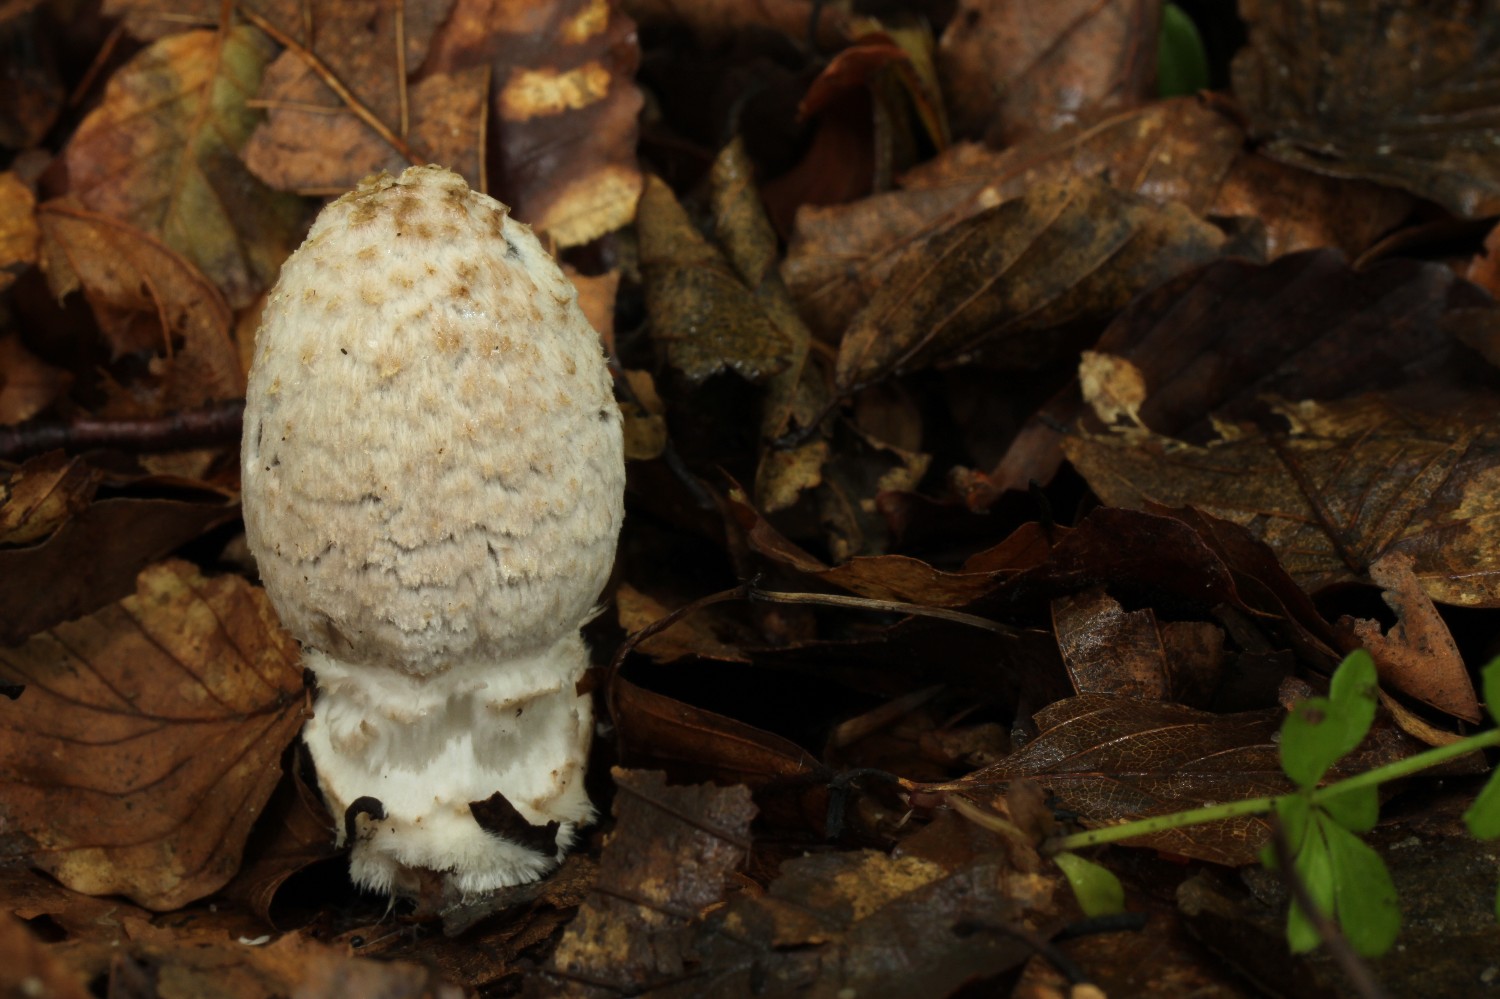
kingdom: Fungi
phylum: Basidiomycota
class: Agaricomycetes
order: Agaricales
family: Psathyrellaceae
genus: Coprinopsis
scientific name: Coprinopsis picacea
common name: skade-blækhat
